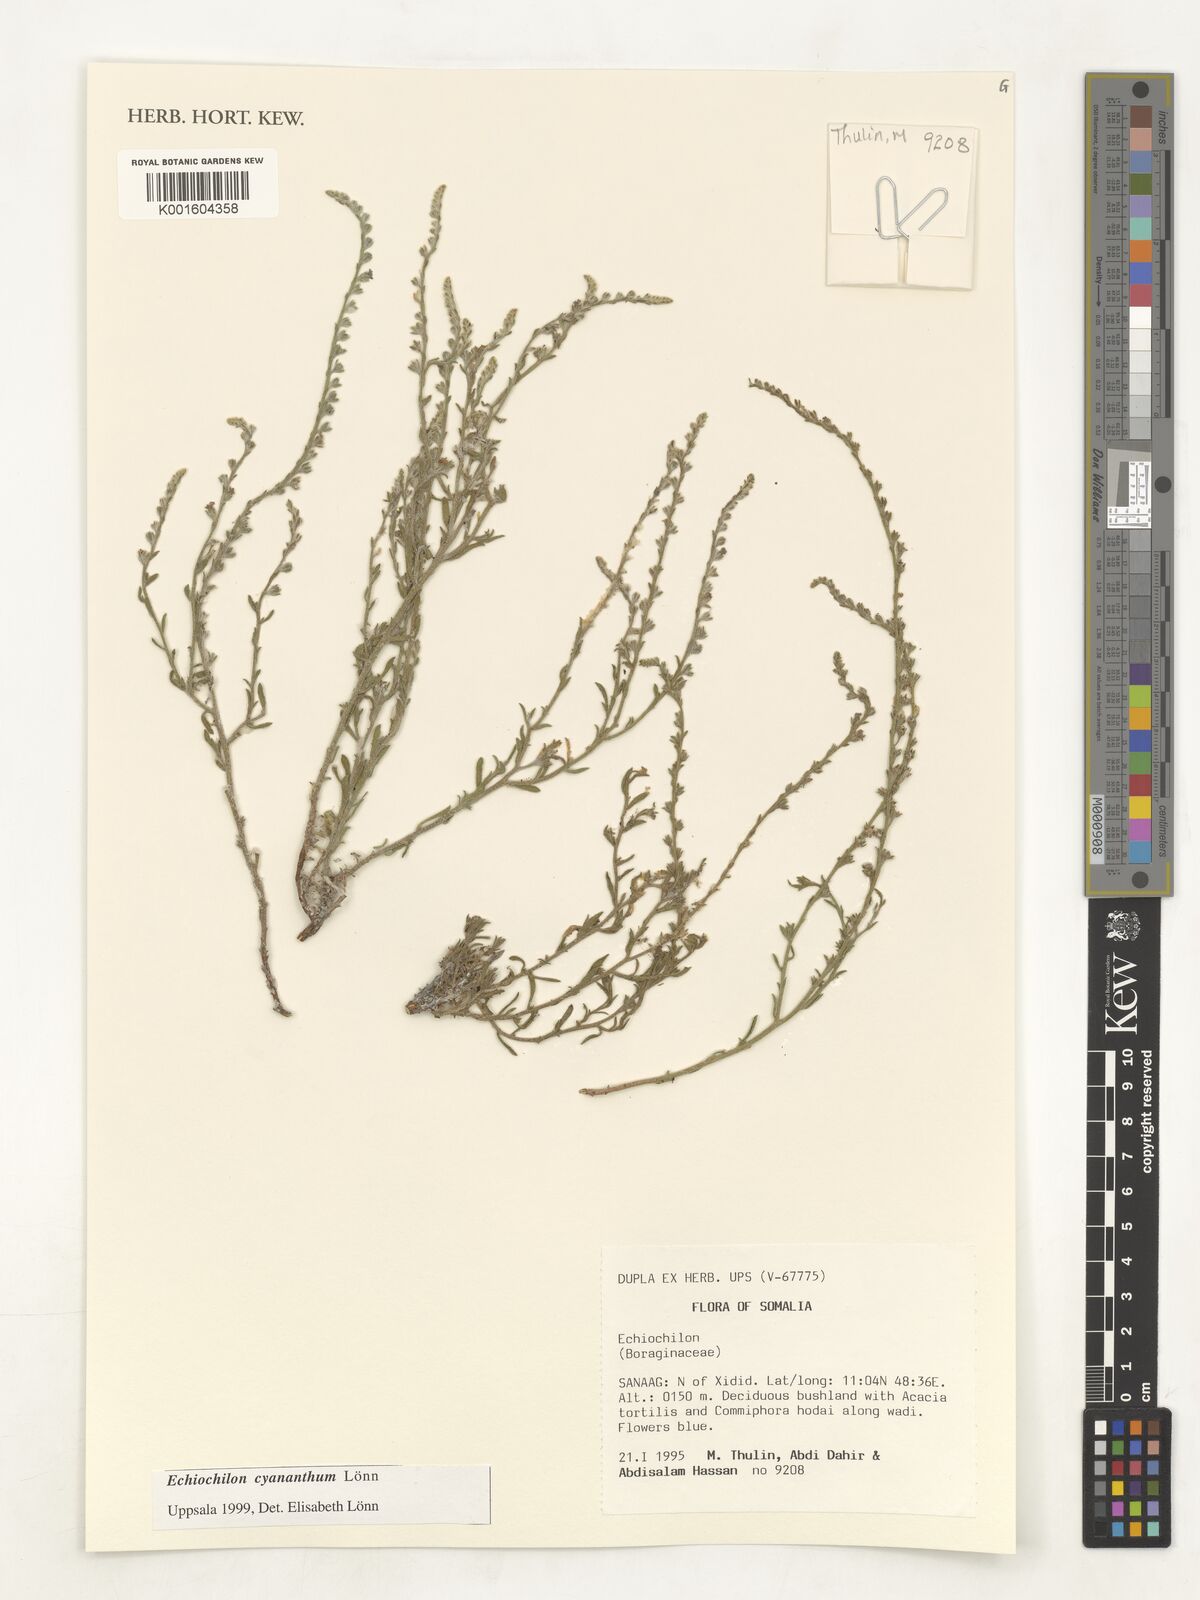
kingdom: Plantae
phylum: Tracheophyta
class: Magnoliopsida
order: Boraginales
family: Boraginaceae
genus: Echiochilon
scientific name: Echiochilon cyananthum
